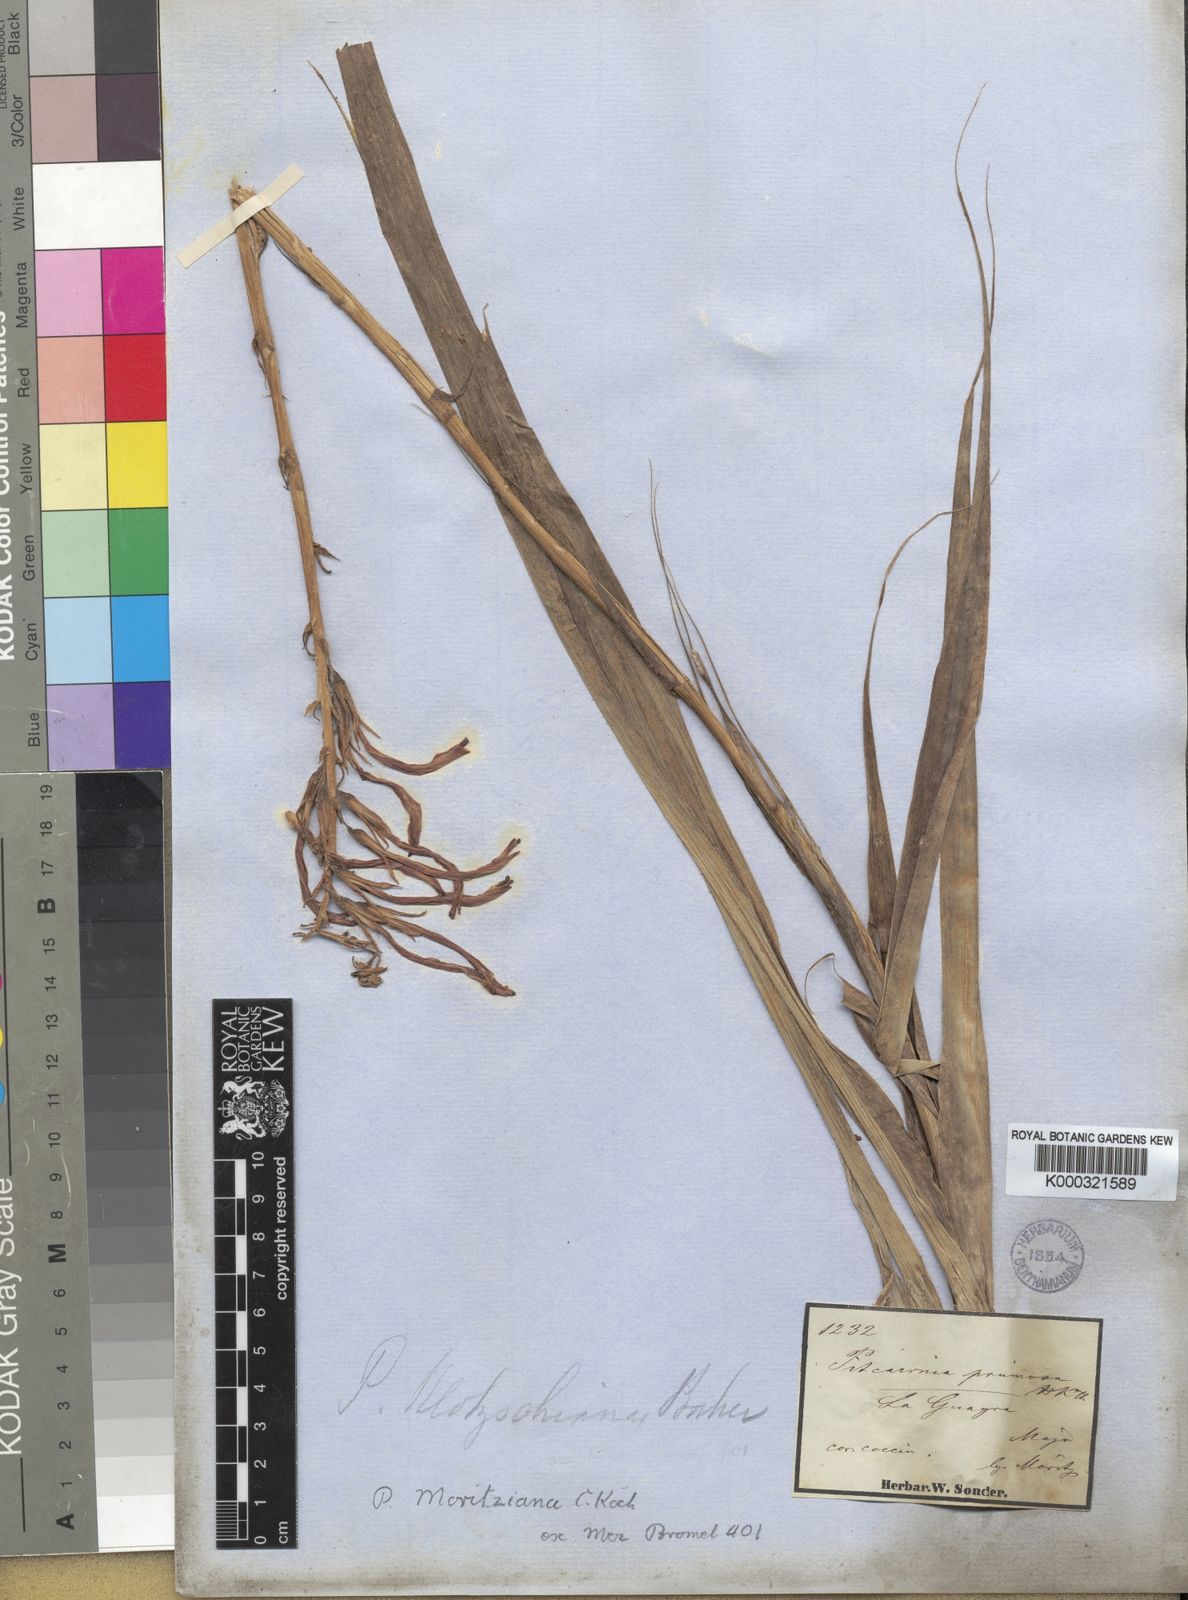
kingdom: Plantae
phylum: Tracheophyta
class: Liliopsida
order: Poales
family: Bromeliaceae
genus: Pitcairnia
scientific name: Pitcairnia moritziana
